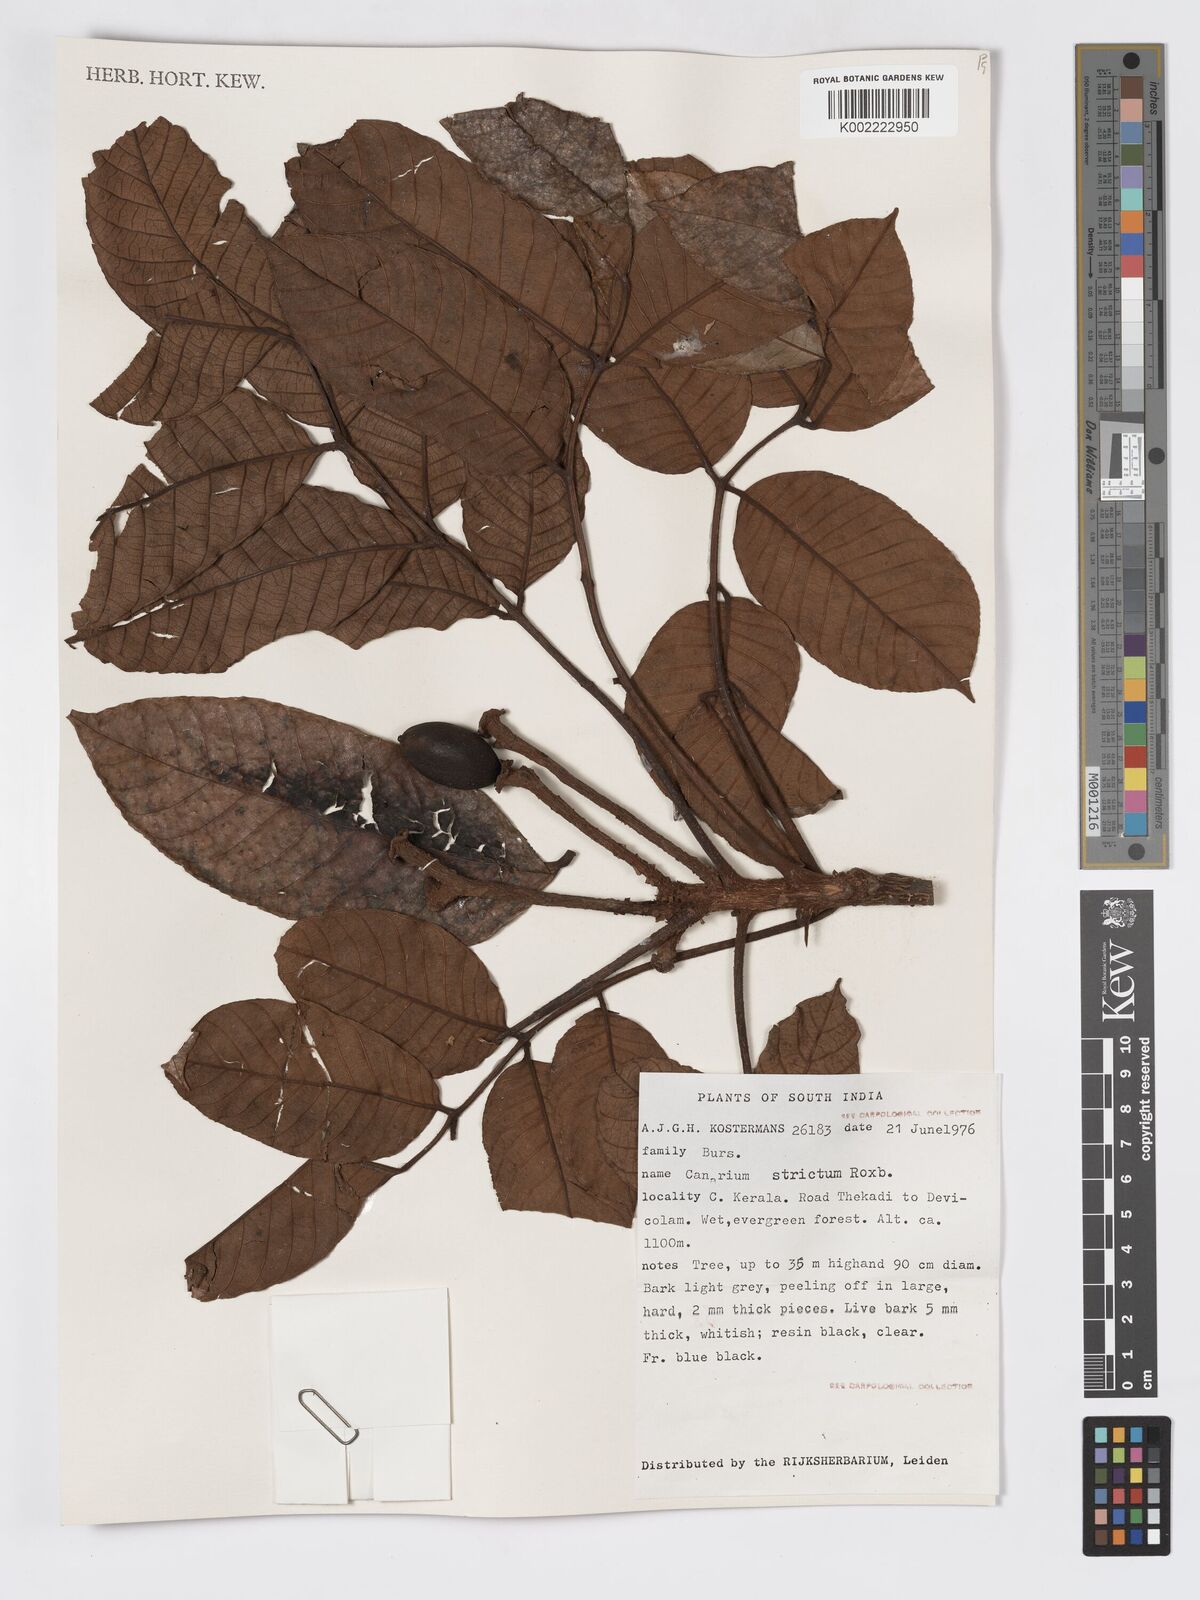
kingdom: Plantae
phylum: Tracheophyta
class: Magnoliopsida
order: Sapindales
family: Burseraceae
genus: Canarium
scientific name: Canarium strictum
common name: Indian white-mahogany
